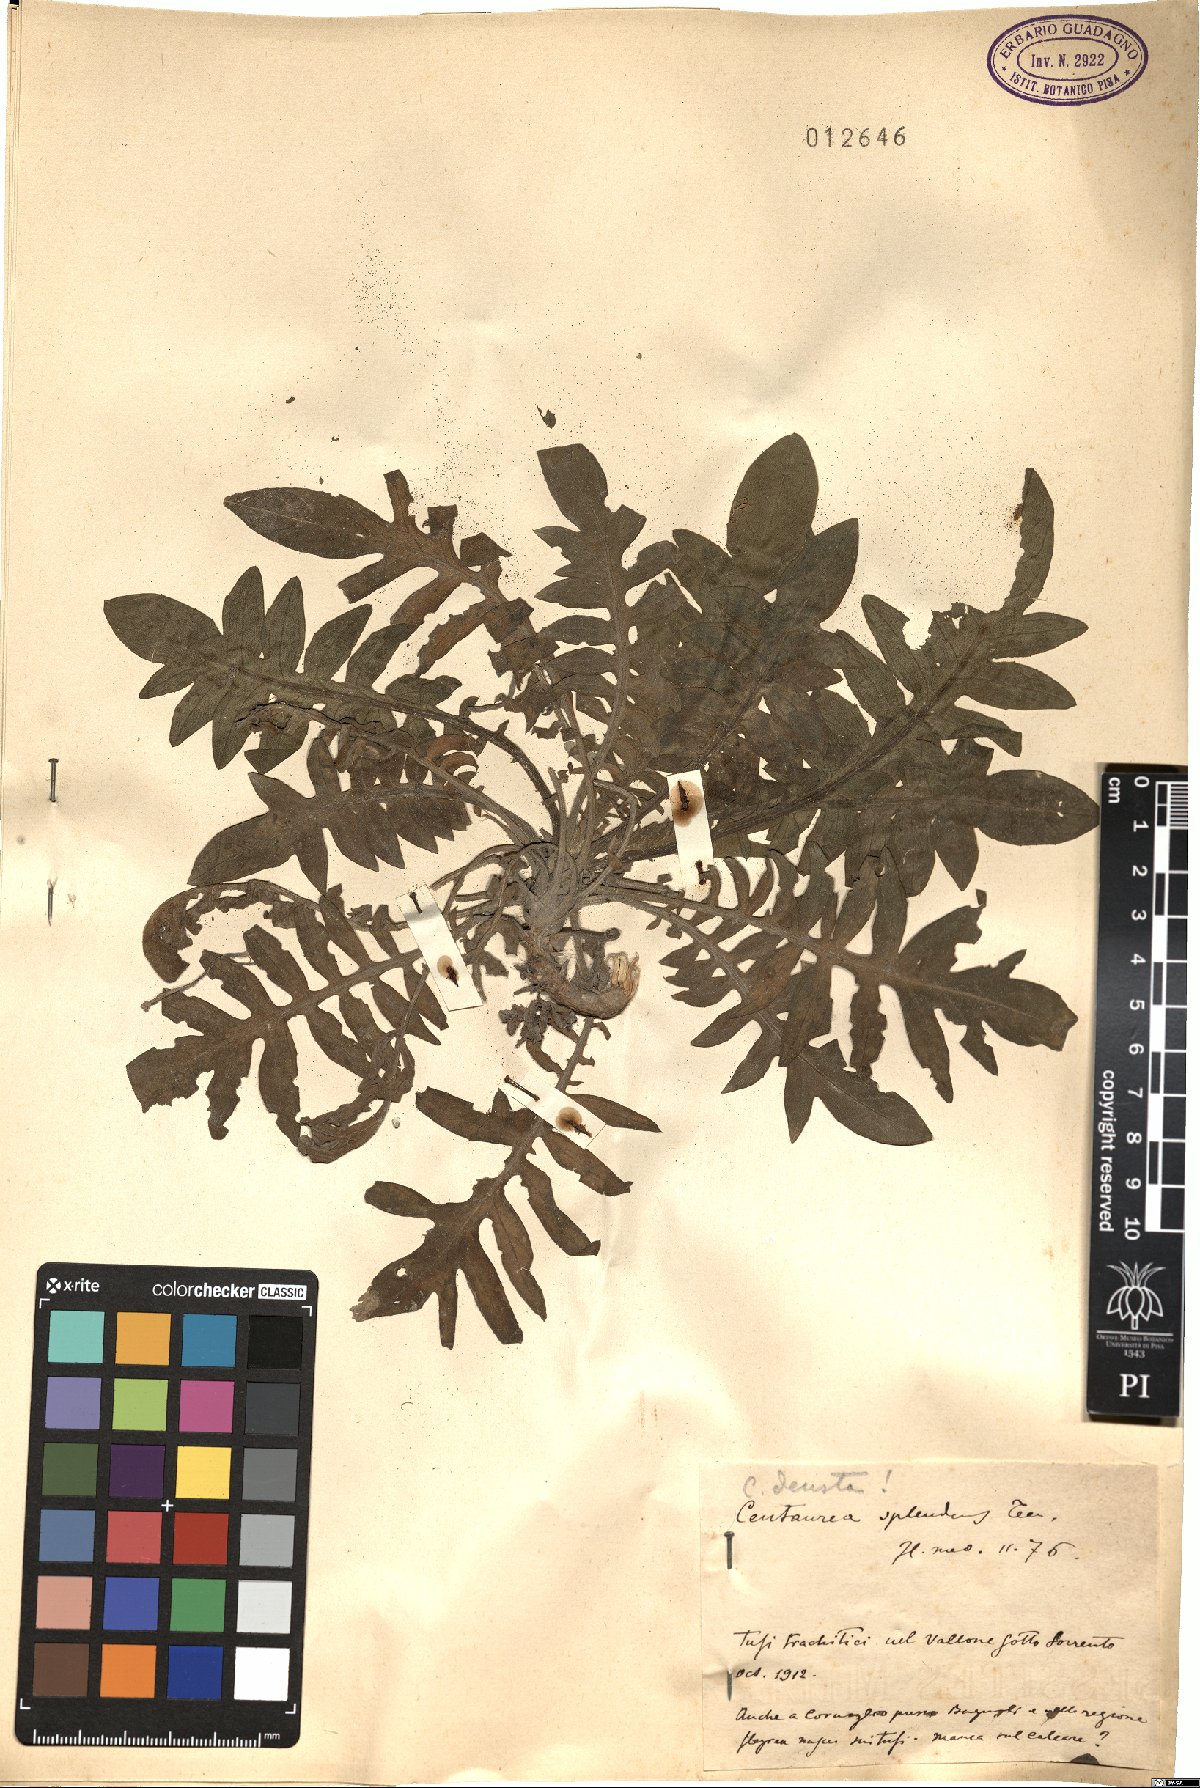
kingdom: Plantae
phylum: Tracheophyta
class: Magnoliopsida
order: Asterales
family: Asteraceae
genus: Centaurea
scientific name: Centaurea deusta
